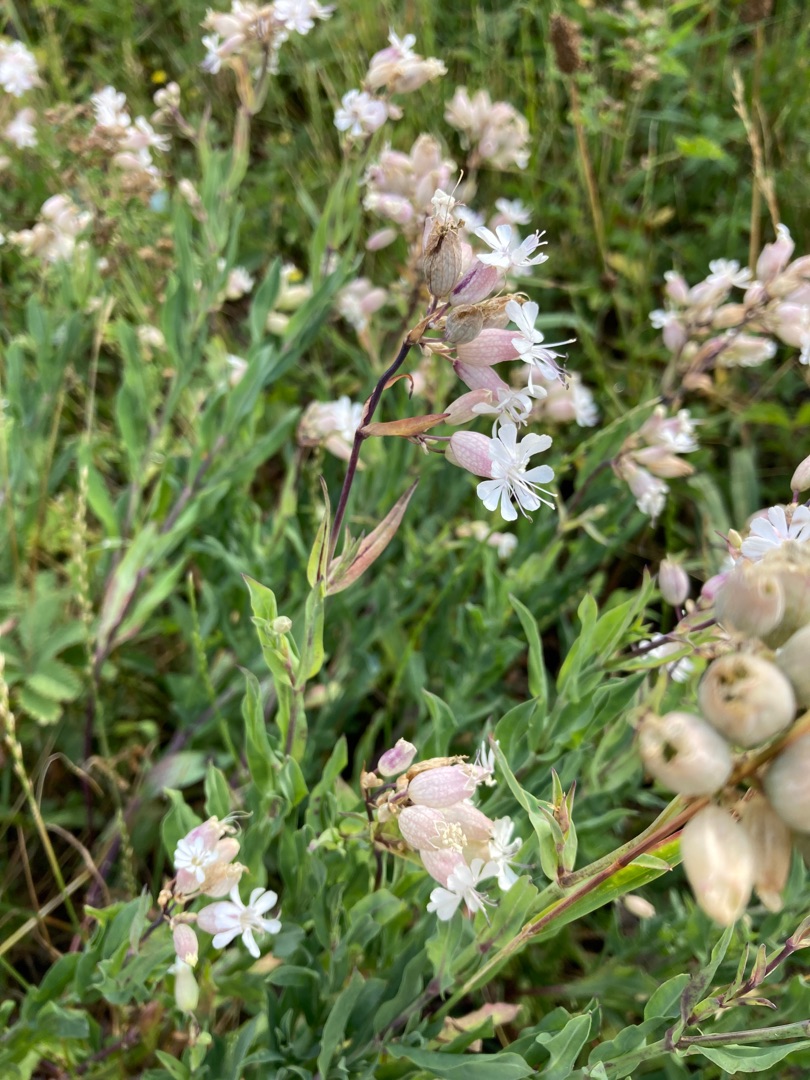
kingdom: Plantae
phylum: Tracheophyta
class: Magnoliopsida
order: Caryophyllales
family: Caryophyllaceae
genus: Silene
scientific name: Silene vulgaris
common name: Blæresmælde
